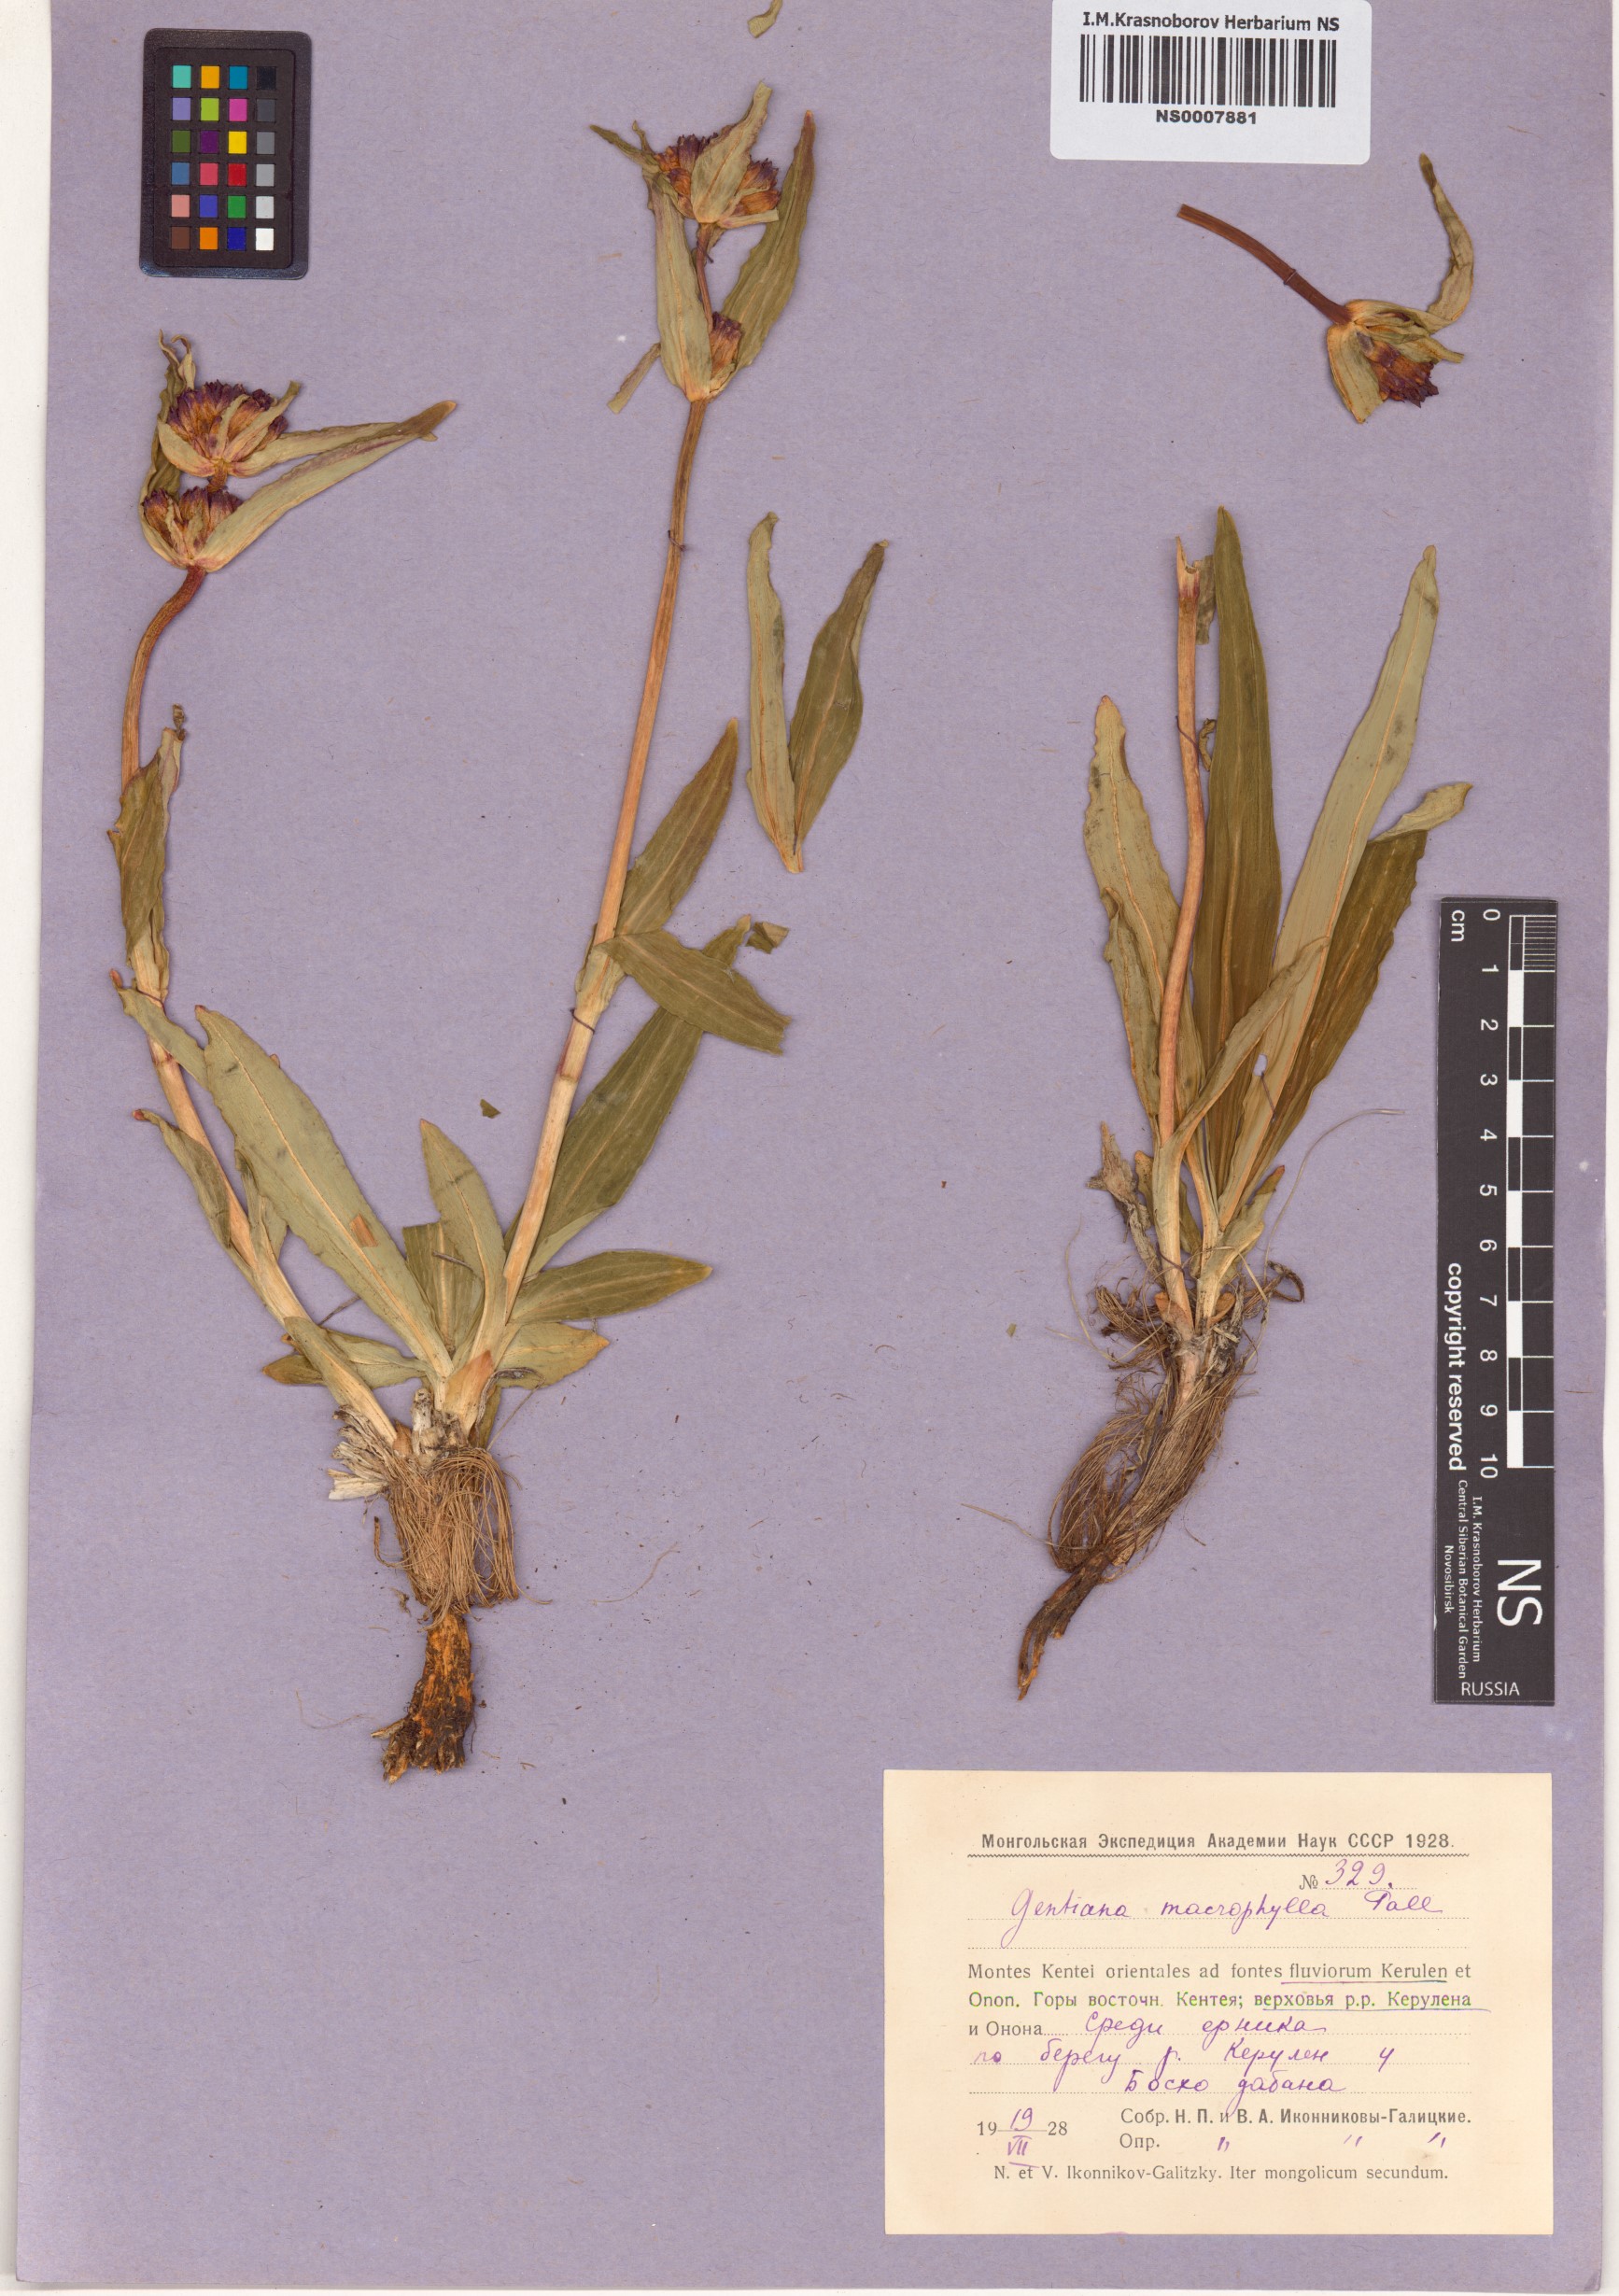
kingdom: Plantae
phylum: Tracheophyta
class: Magnoliopsida
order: Gentianales
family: Gentianaceae
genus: Gentiana
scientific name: Gentiana macrophylla
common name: Large-leaf gentian
